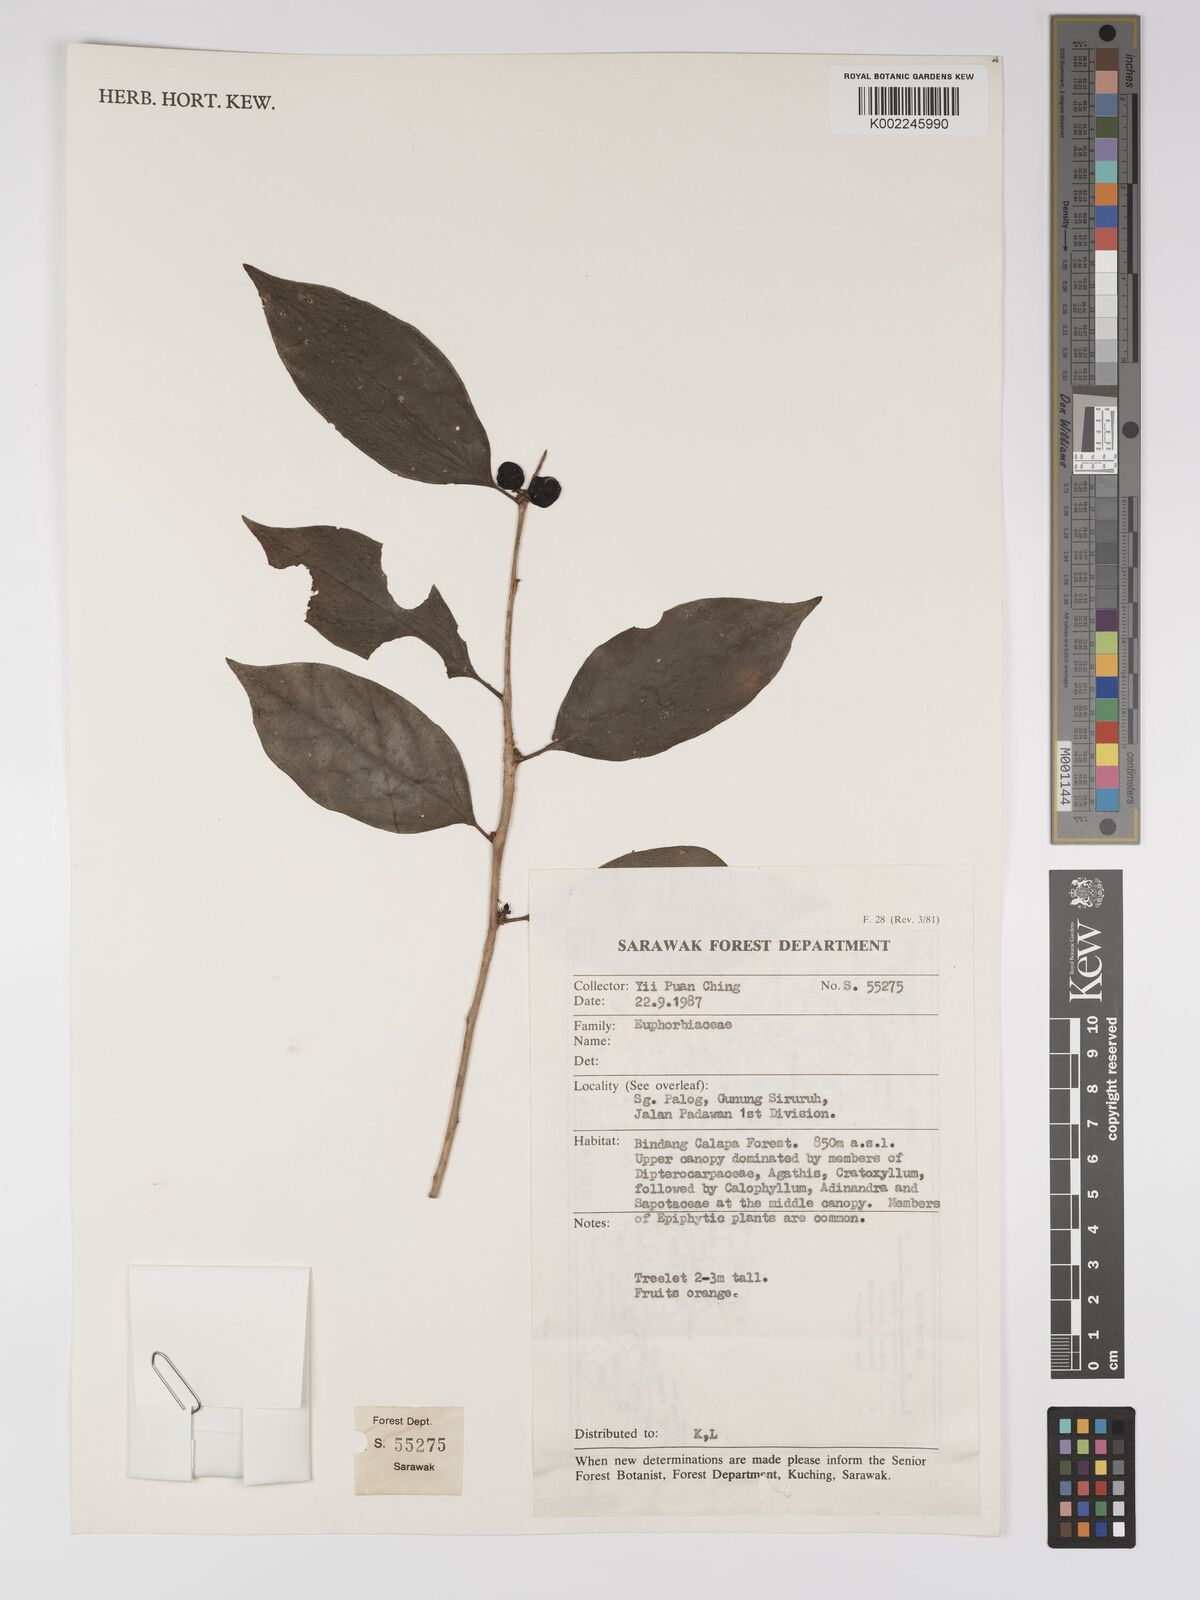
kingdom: Plantae
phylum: Tracheophyta
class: Magnoliopsida
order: Malpighiales
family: Euphorbiaceae
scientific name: Euphorbiaceae
